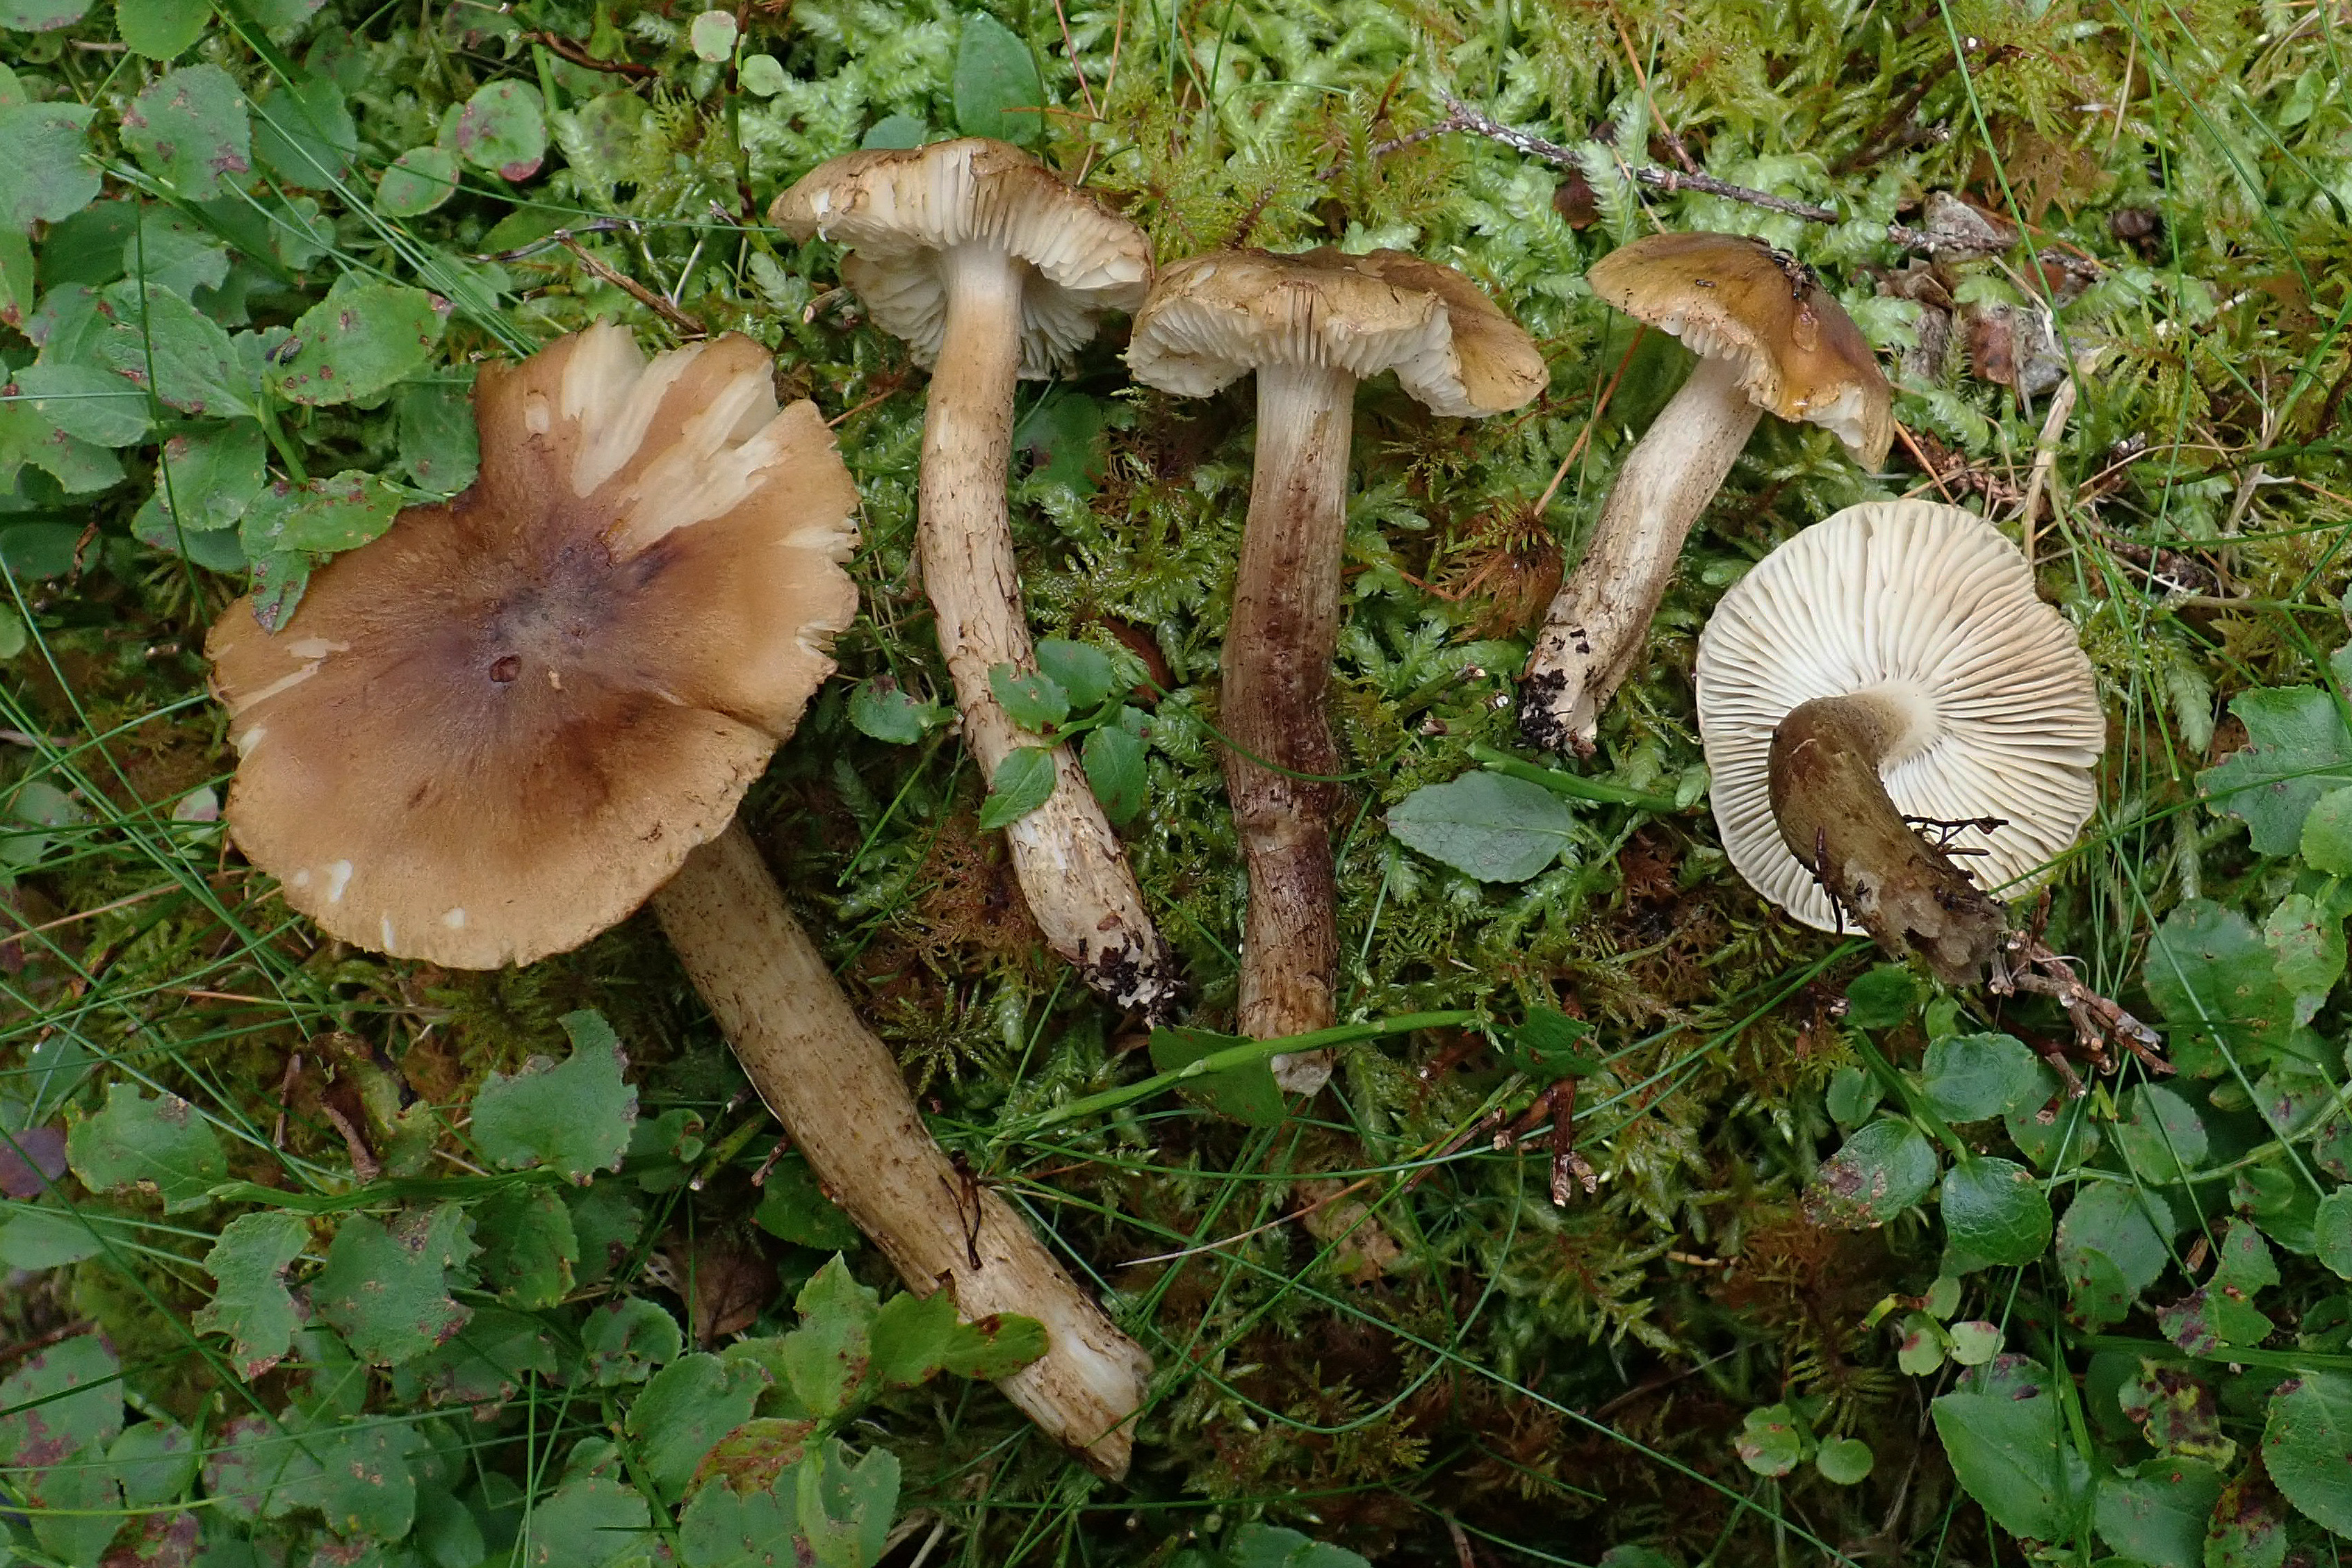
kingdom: Fungi
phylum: Basidiomycota
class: Agaricomycetes
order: Agaricales
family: Tricholomataceae
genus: Tricholoma
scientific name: Tricholoma fucatum
